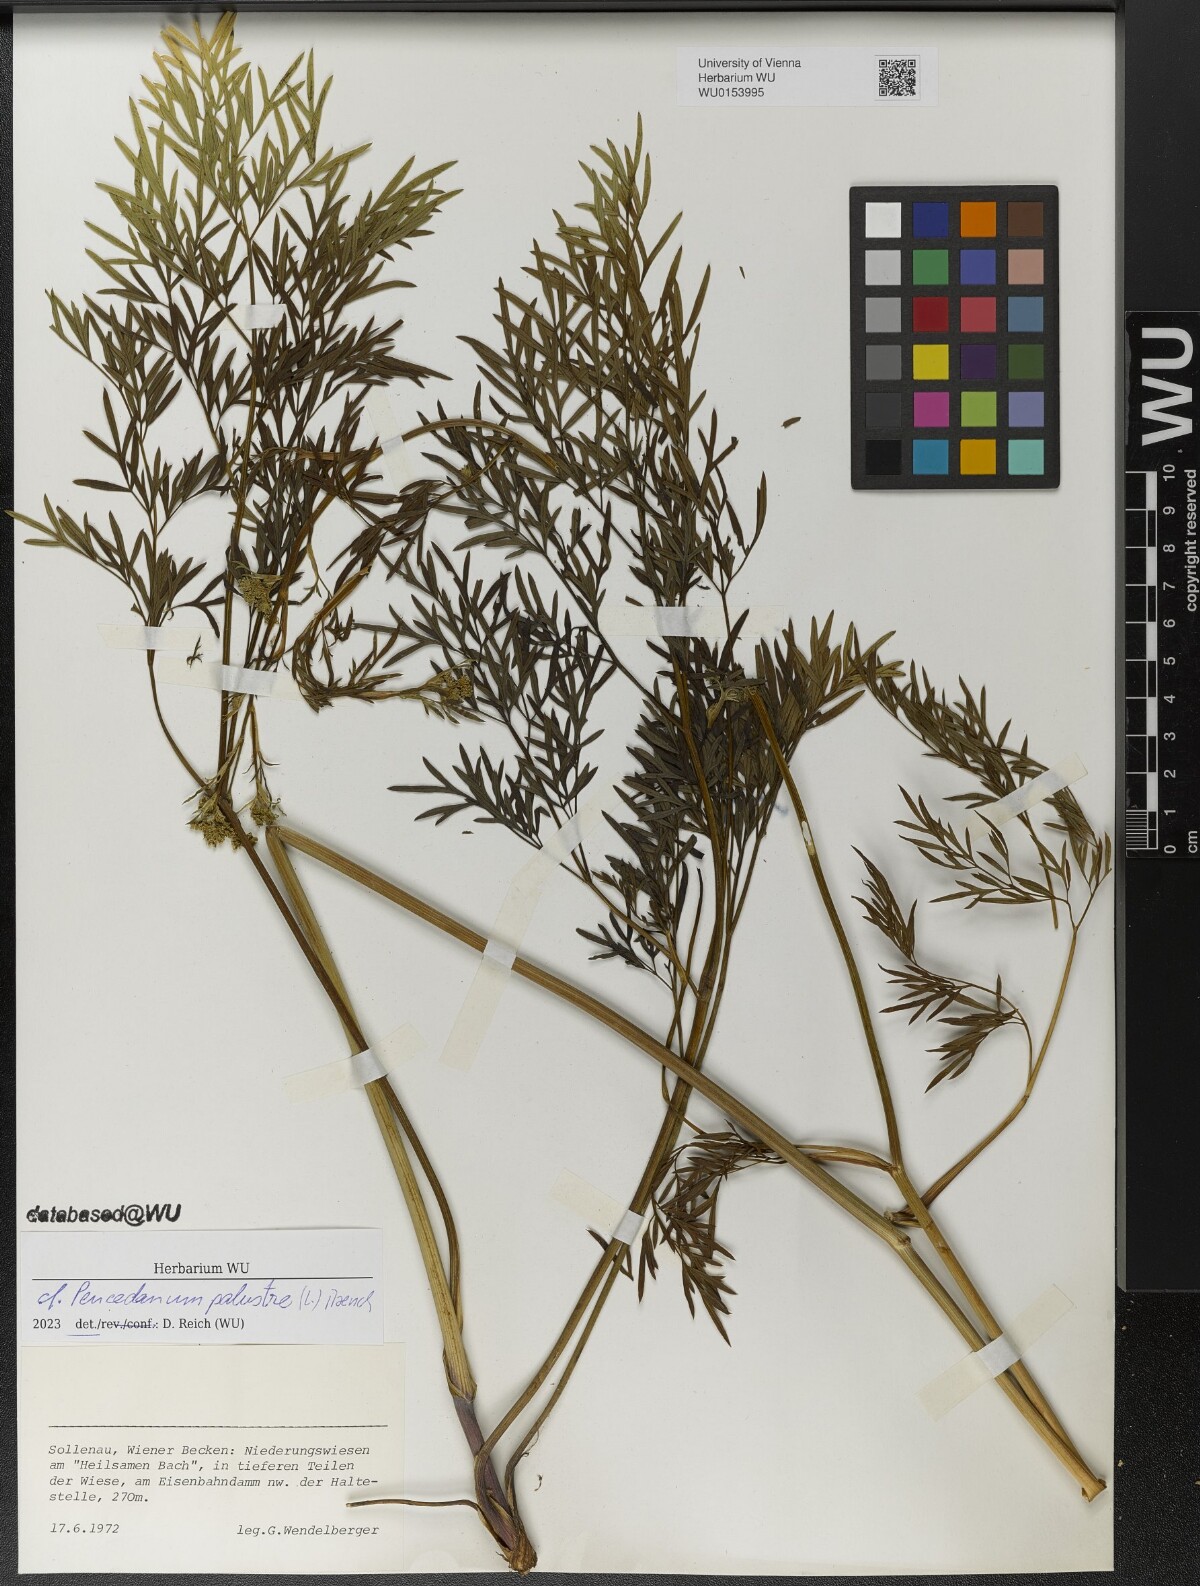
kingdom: Plantae
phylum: Tracheophyta
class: Magnoliopsida
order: Apiales
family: Apiaceae
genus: Thysselinum
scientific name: Thysselinum palustre
